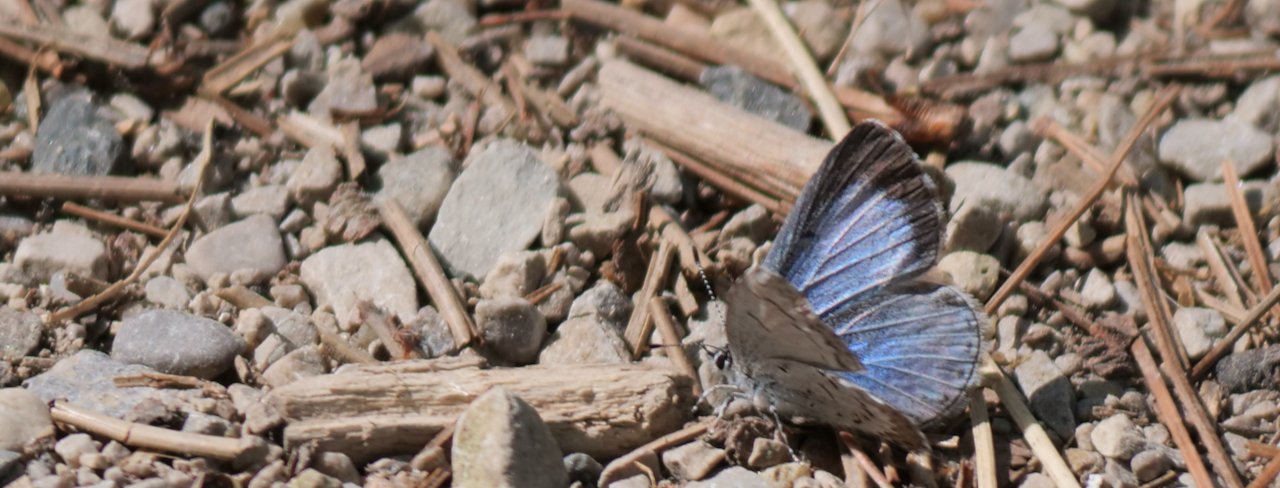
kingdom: Animalia
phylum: Arthropoda
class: Insecta
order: Lepidoptera
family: Lycaenidae
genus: Celastrina
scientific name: Celastrina lucia
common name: Northern Spring Azure
